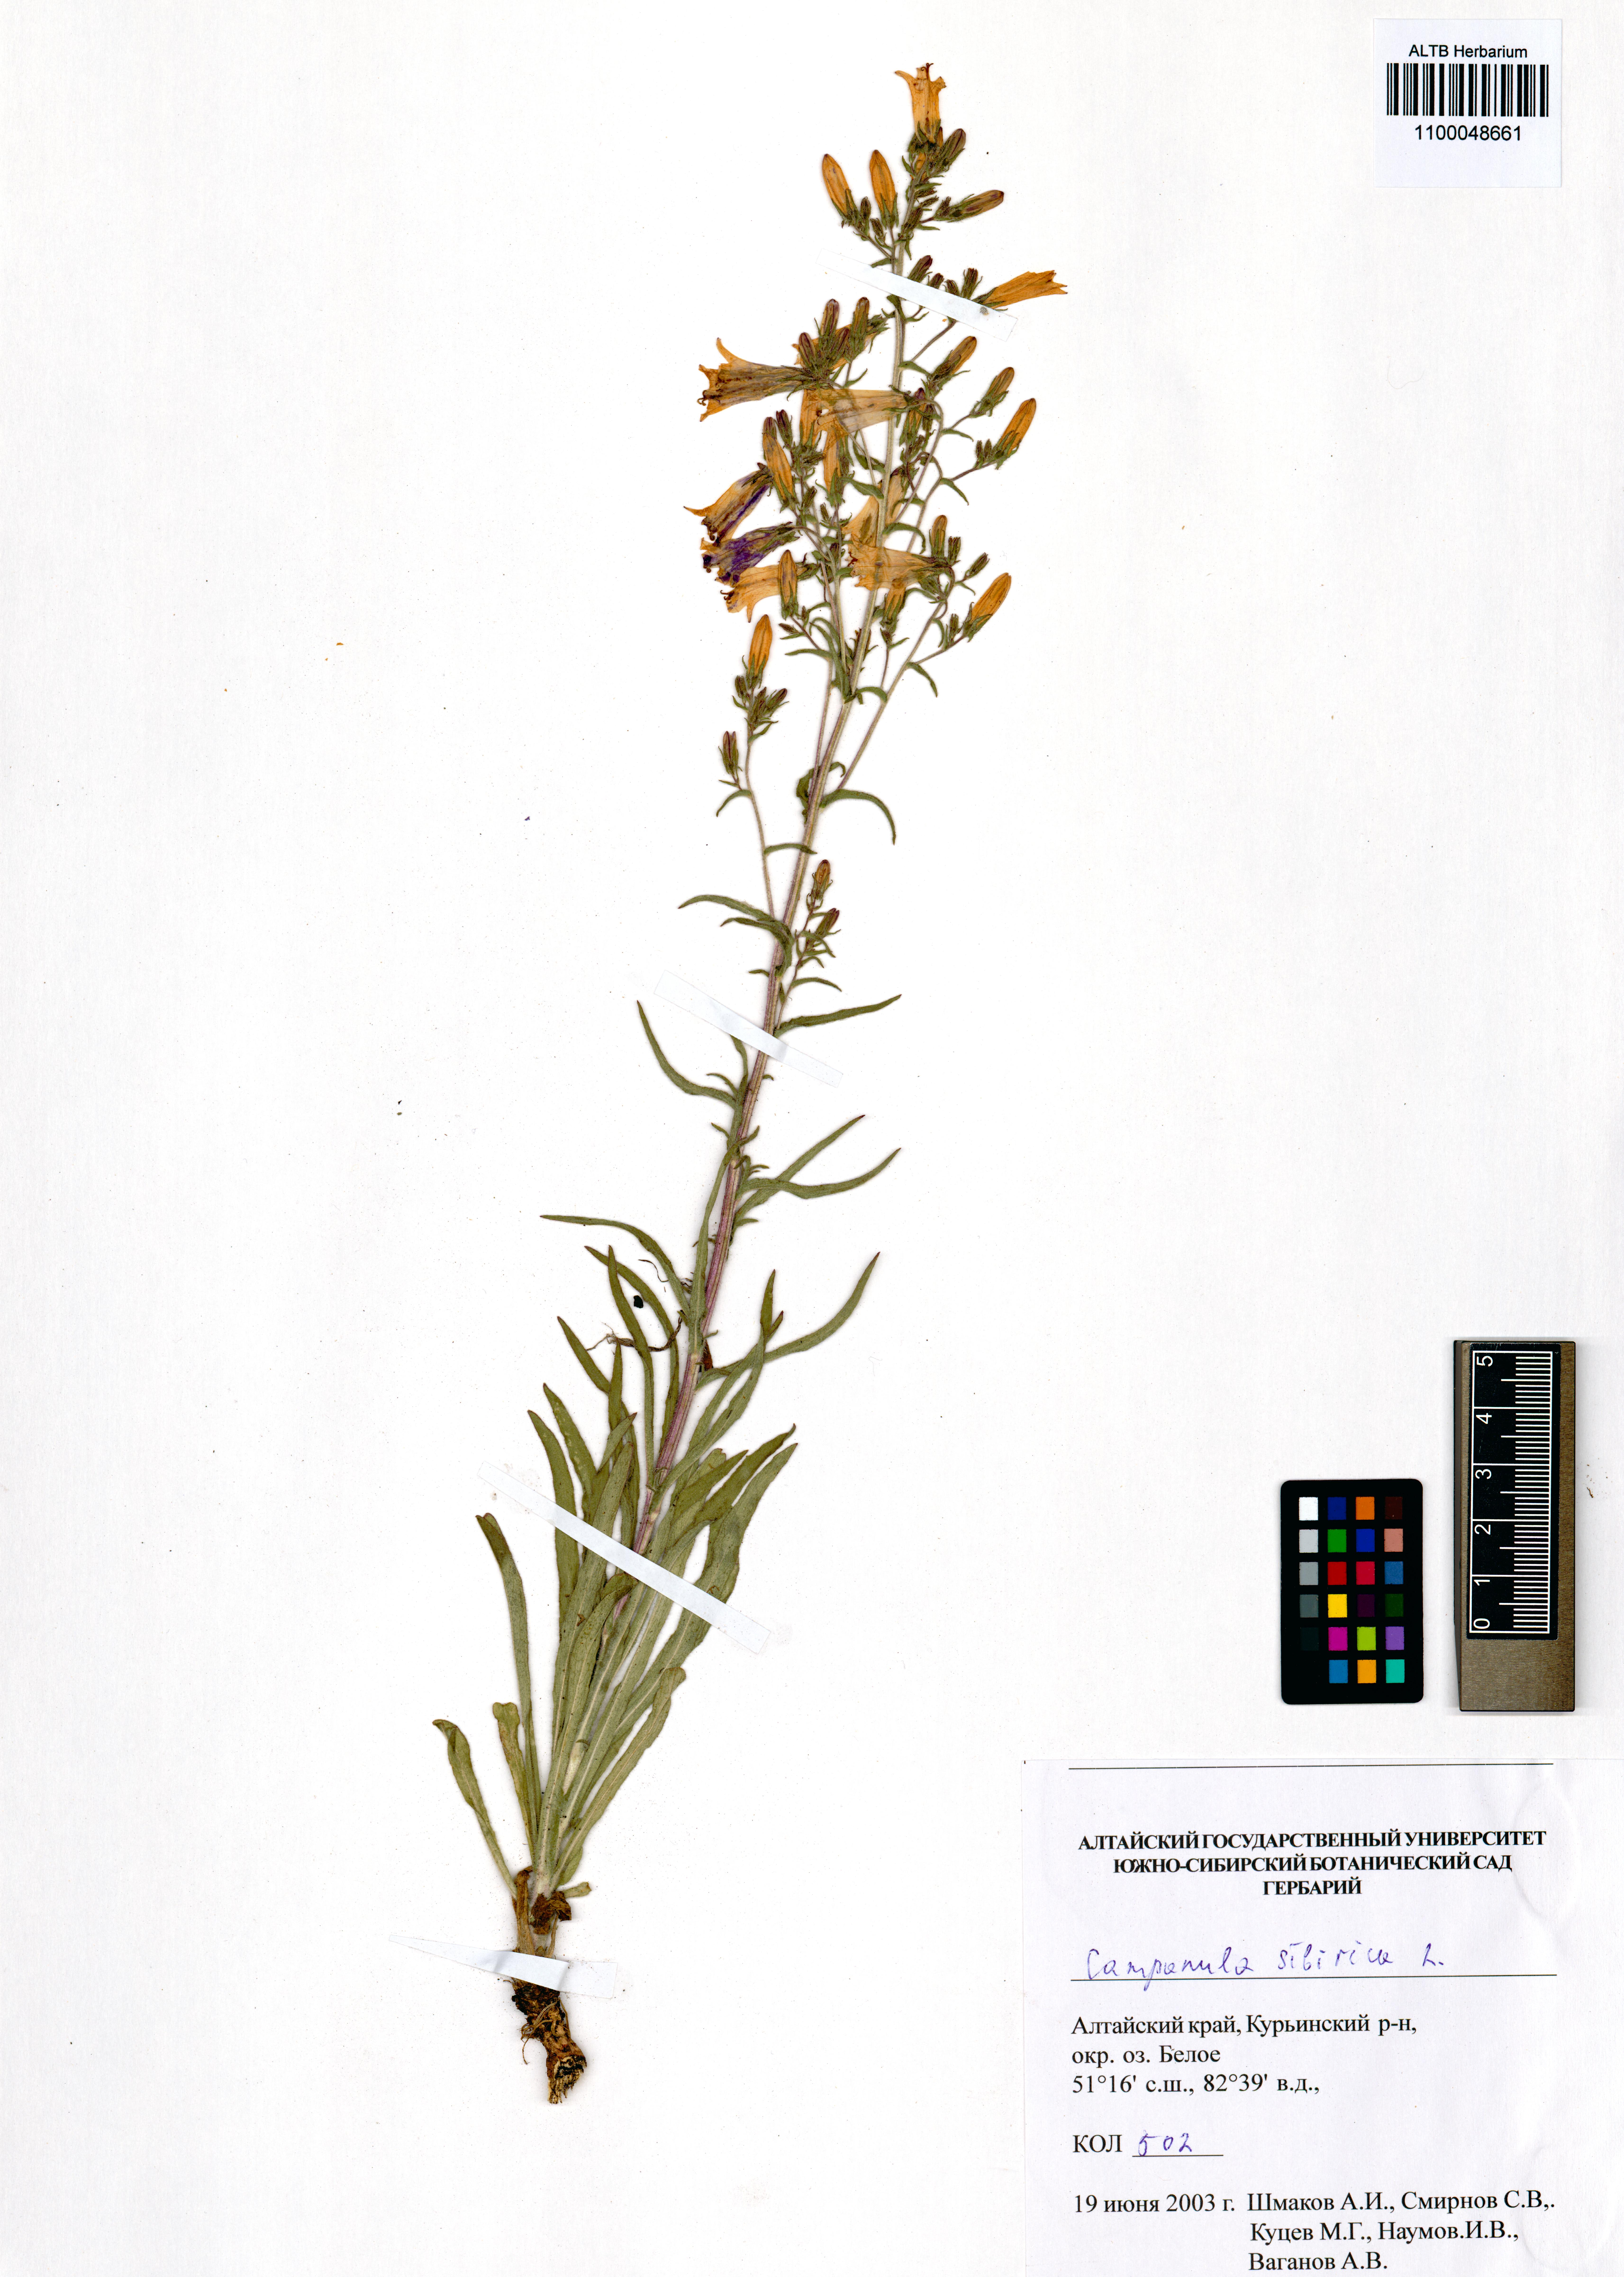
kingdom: Plantae
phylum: Tracheophyta
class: Magnoliopsida
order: Asterales
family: Campanulaceae
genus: Campanula
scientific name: Campanula sibirica
